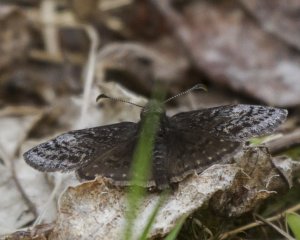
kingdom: Animalia
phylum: Arthropoda
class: Insecta
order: Lepidoptera
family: Hesperiidae
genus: Erynnis
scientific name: Erynnis icelus
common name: Dreamy Duskywing
